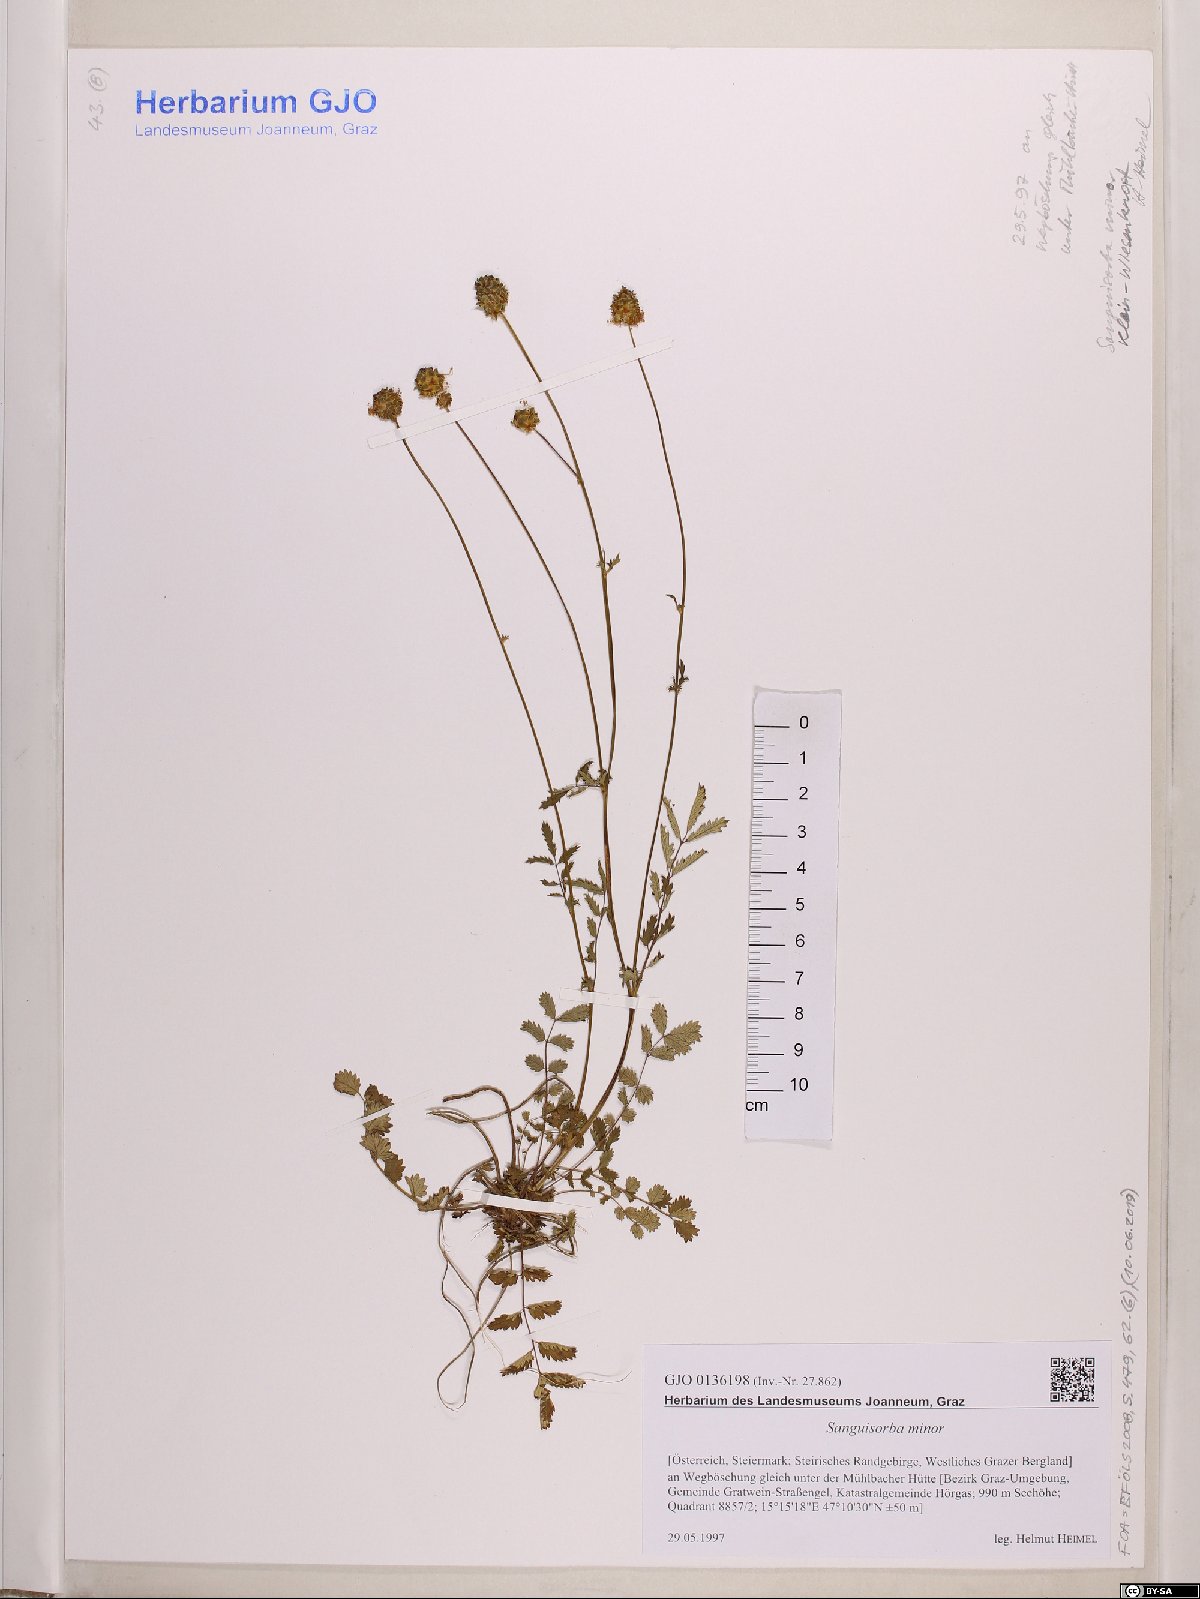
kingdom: Plantae
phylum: Tracheophyta
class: Magnoliopsida
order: Rosales
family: Rosaceae
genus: Poterium
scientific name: Poterium sanguisorba
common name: Salad burnet
